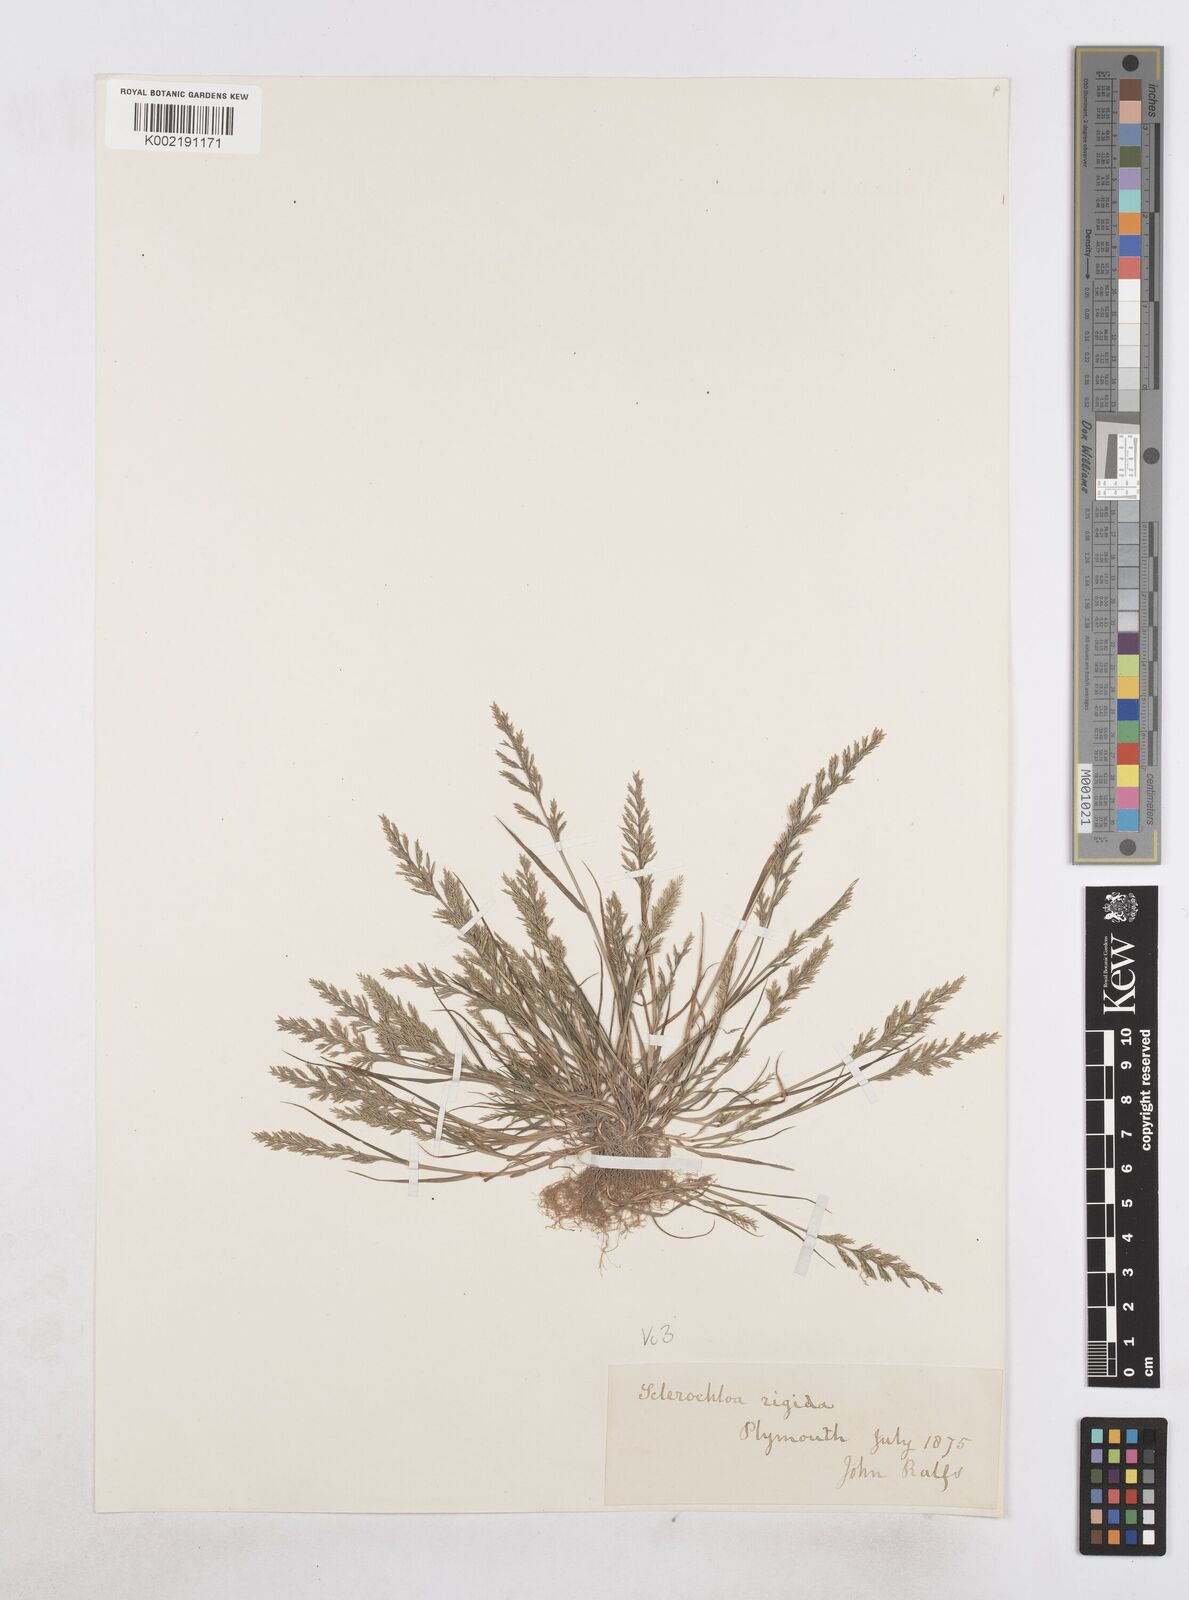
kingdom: Plantae
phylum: Tracheophyta
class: Liliopsida
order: Poales
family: Poaceae
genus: Catapodium
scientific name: Catapodium rigidum
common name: Fern-grass
